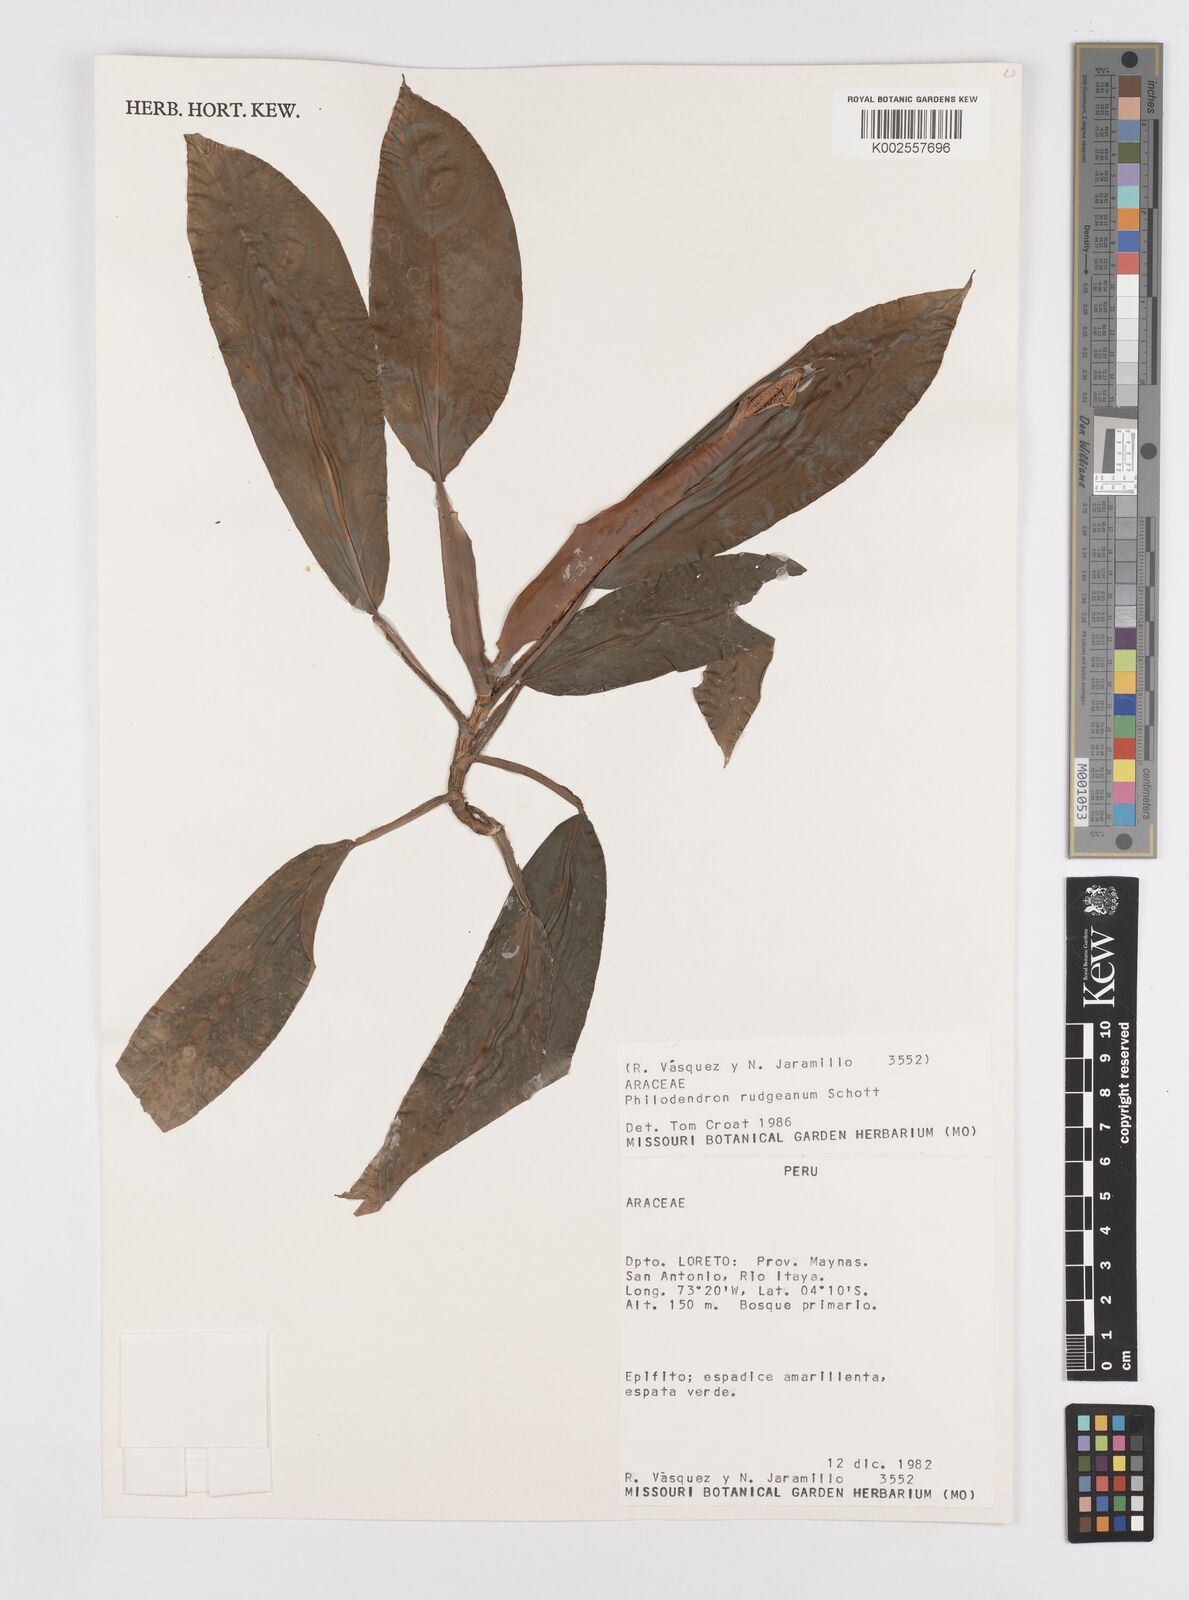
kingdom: Plantae
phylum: Tracheophyta
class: Liliopsida
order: Alismatales
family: Araceae
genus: Philodendron
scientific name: Philodendron rudgeanum
